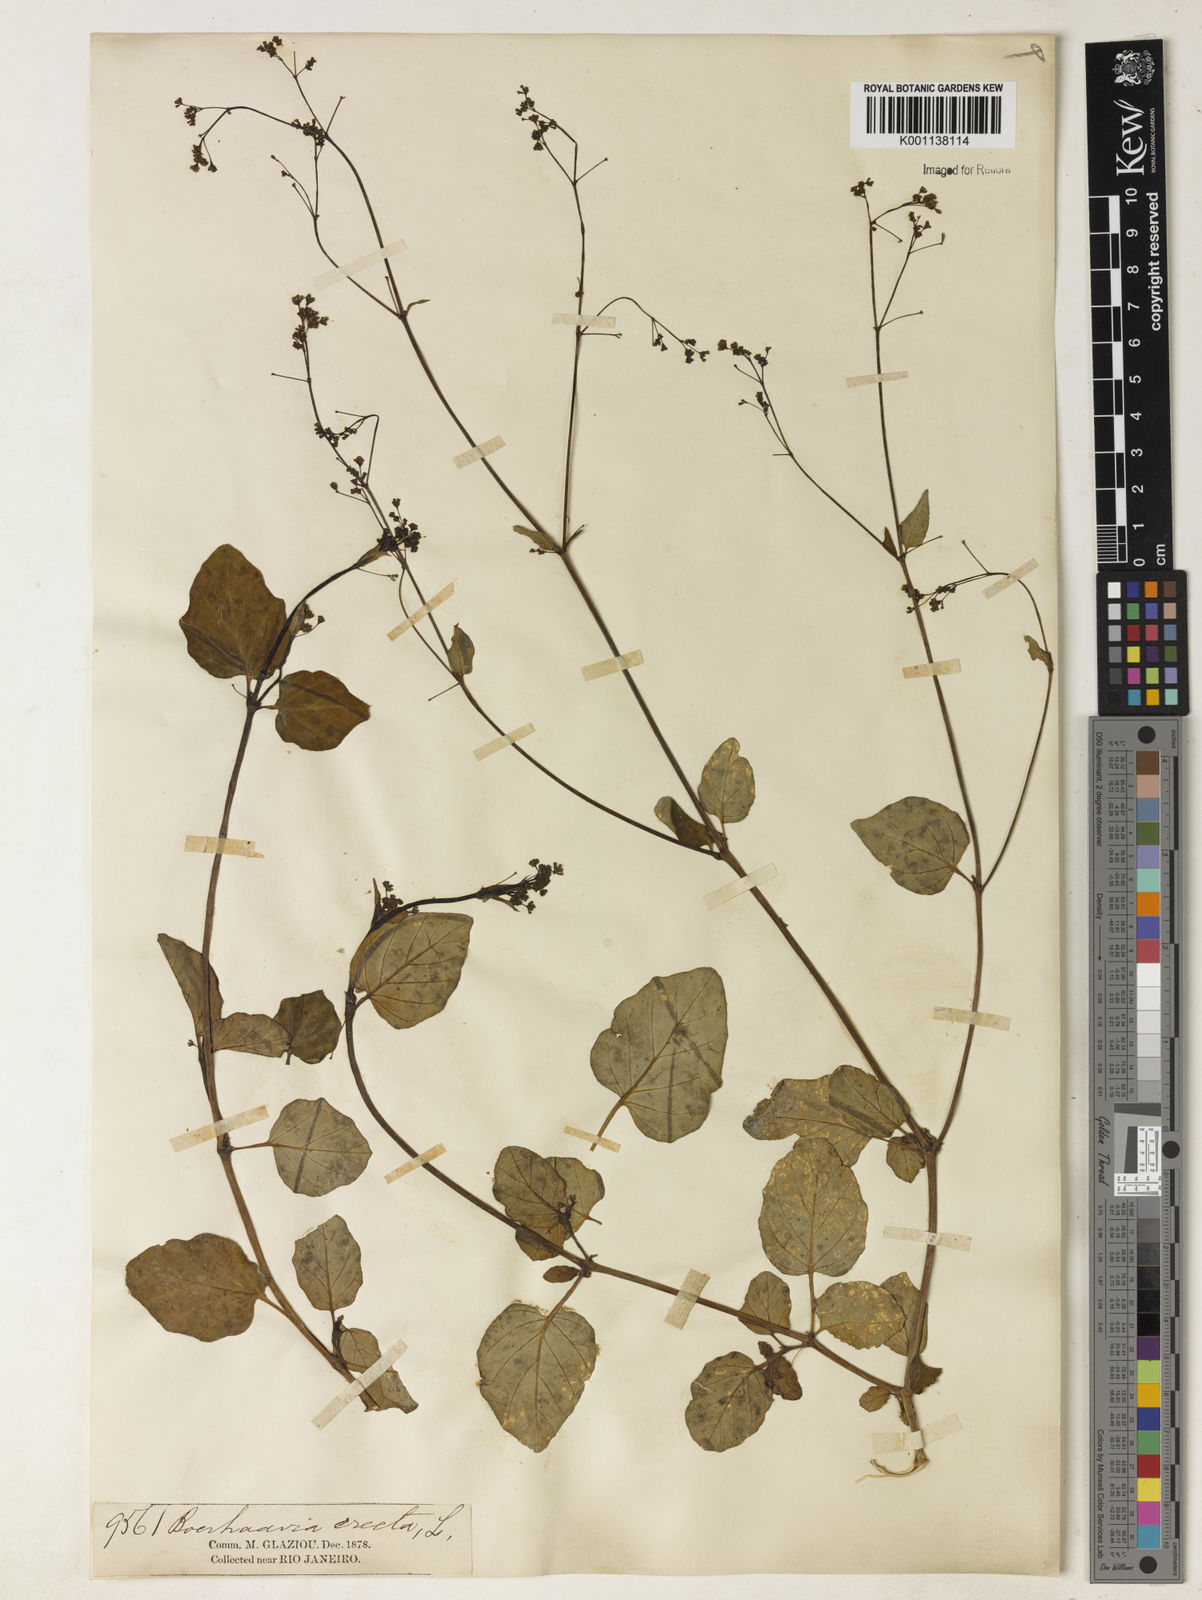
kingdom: Plantae
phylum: Tracheophyta
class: Magnoliopsida
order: Caryophyllales
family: Nyctaginaceae
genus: Boerhavia
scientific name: Boerhavia diffusa
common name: Red spiderling
